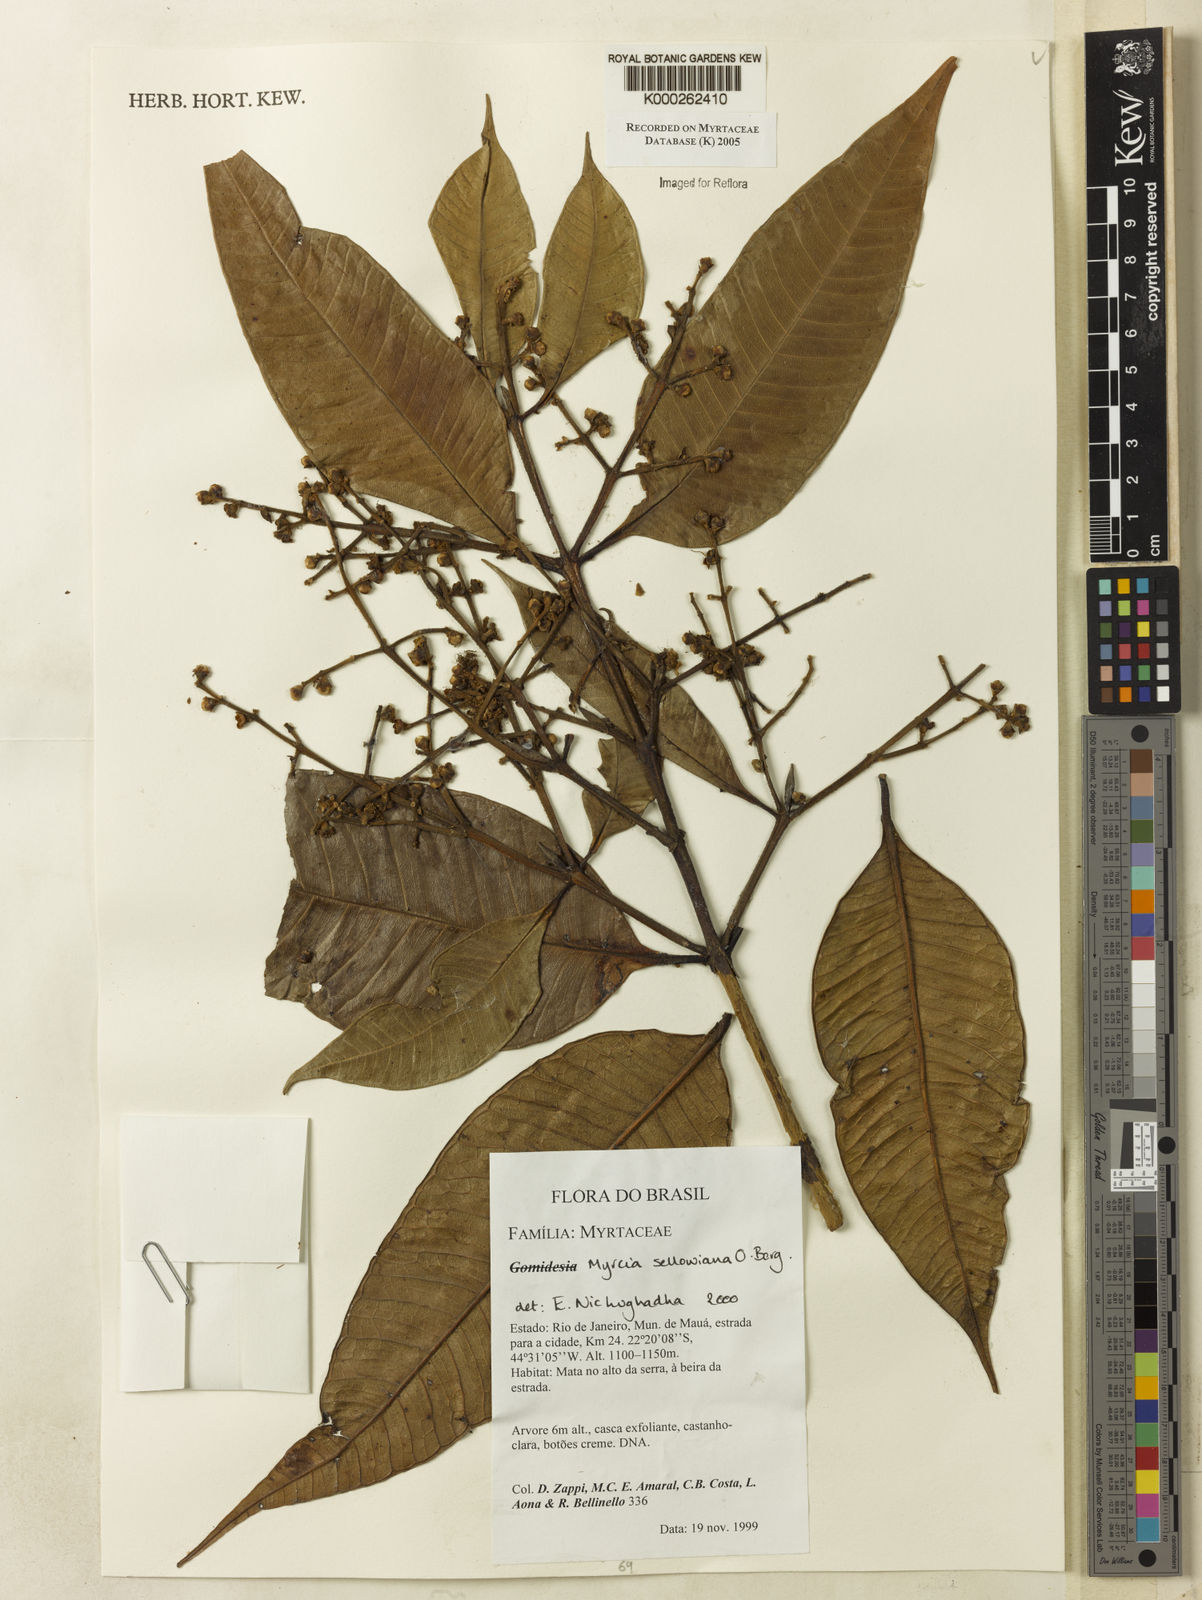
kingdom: Plantae
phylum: Tracheophyta
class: Magnoliopsida
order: Myrtales
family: Myrtaceae
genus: Myrcia
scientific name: Myrcia splendens
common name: Surinam cherry
